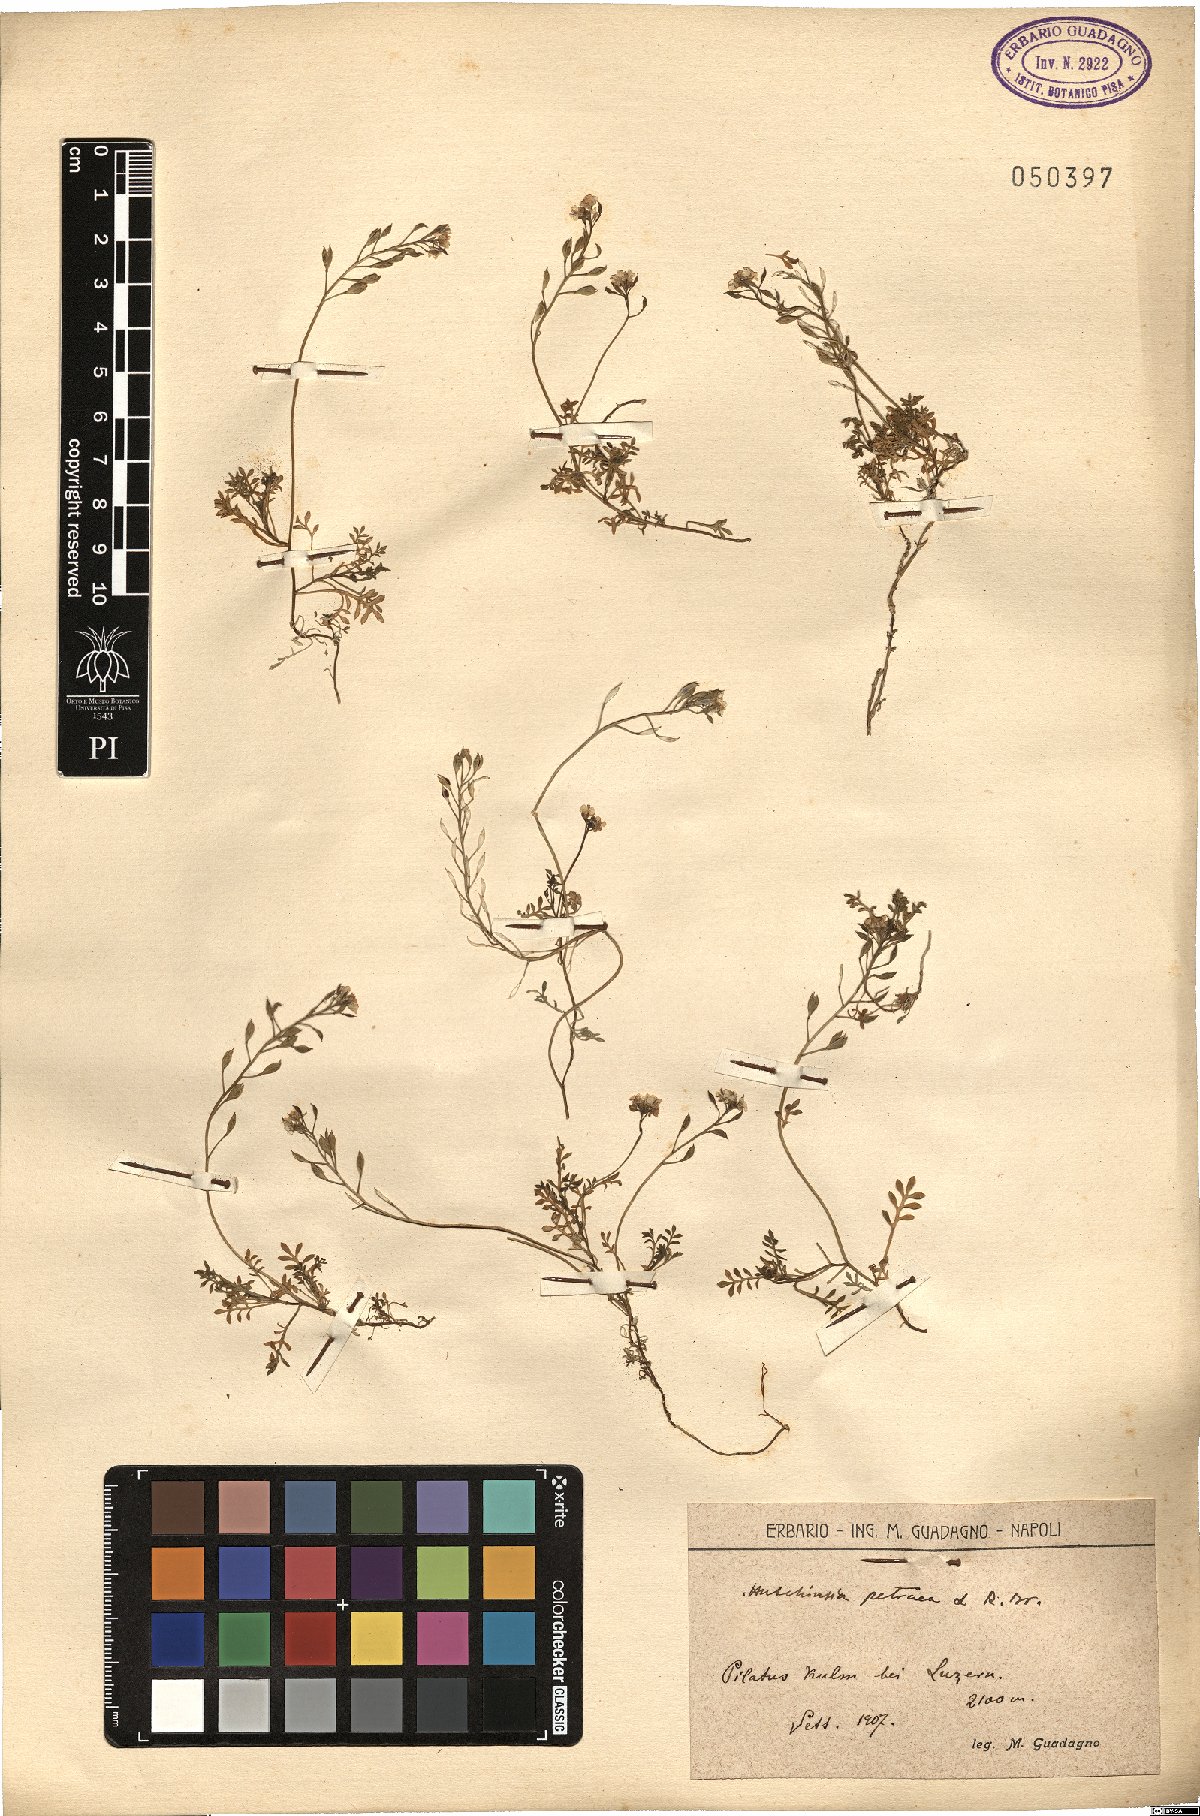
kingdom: Plantae
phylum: Tracheophyta
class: Magnoliopsida
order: Brassicales
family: Brassicaceae
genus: Hornungia
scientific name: Hornungia petraea
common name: Hutchinsia
